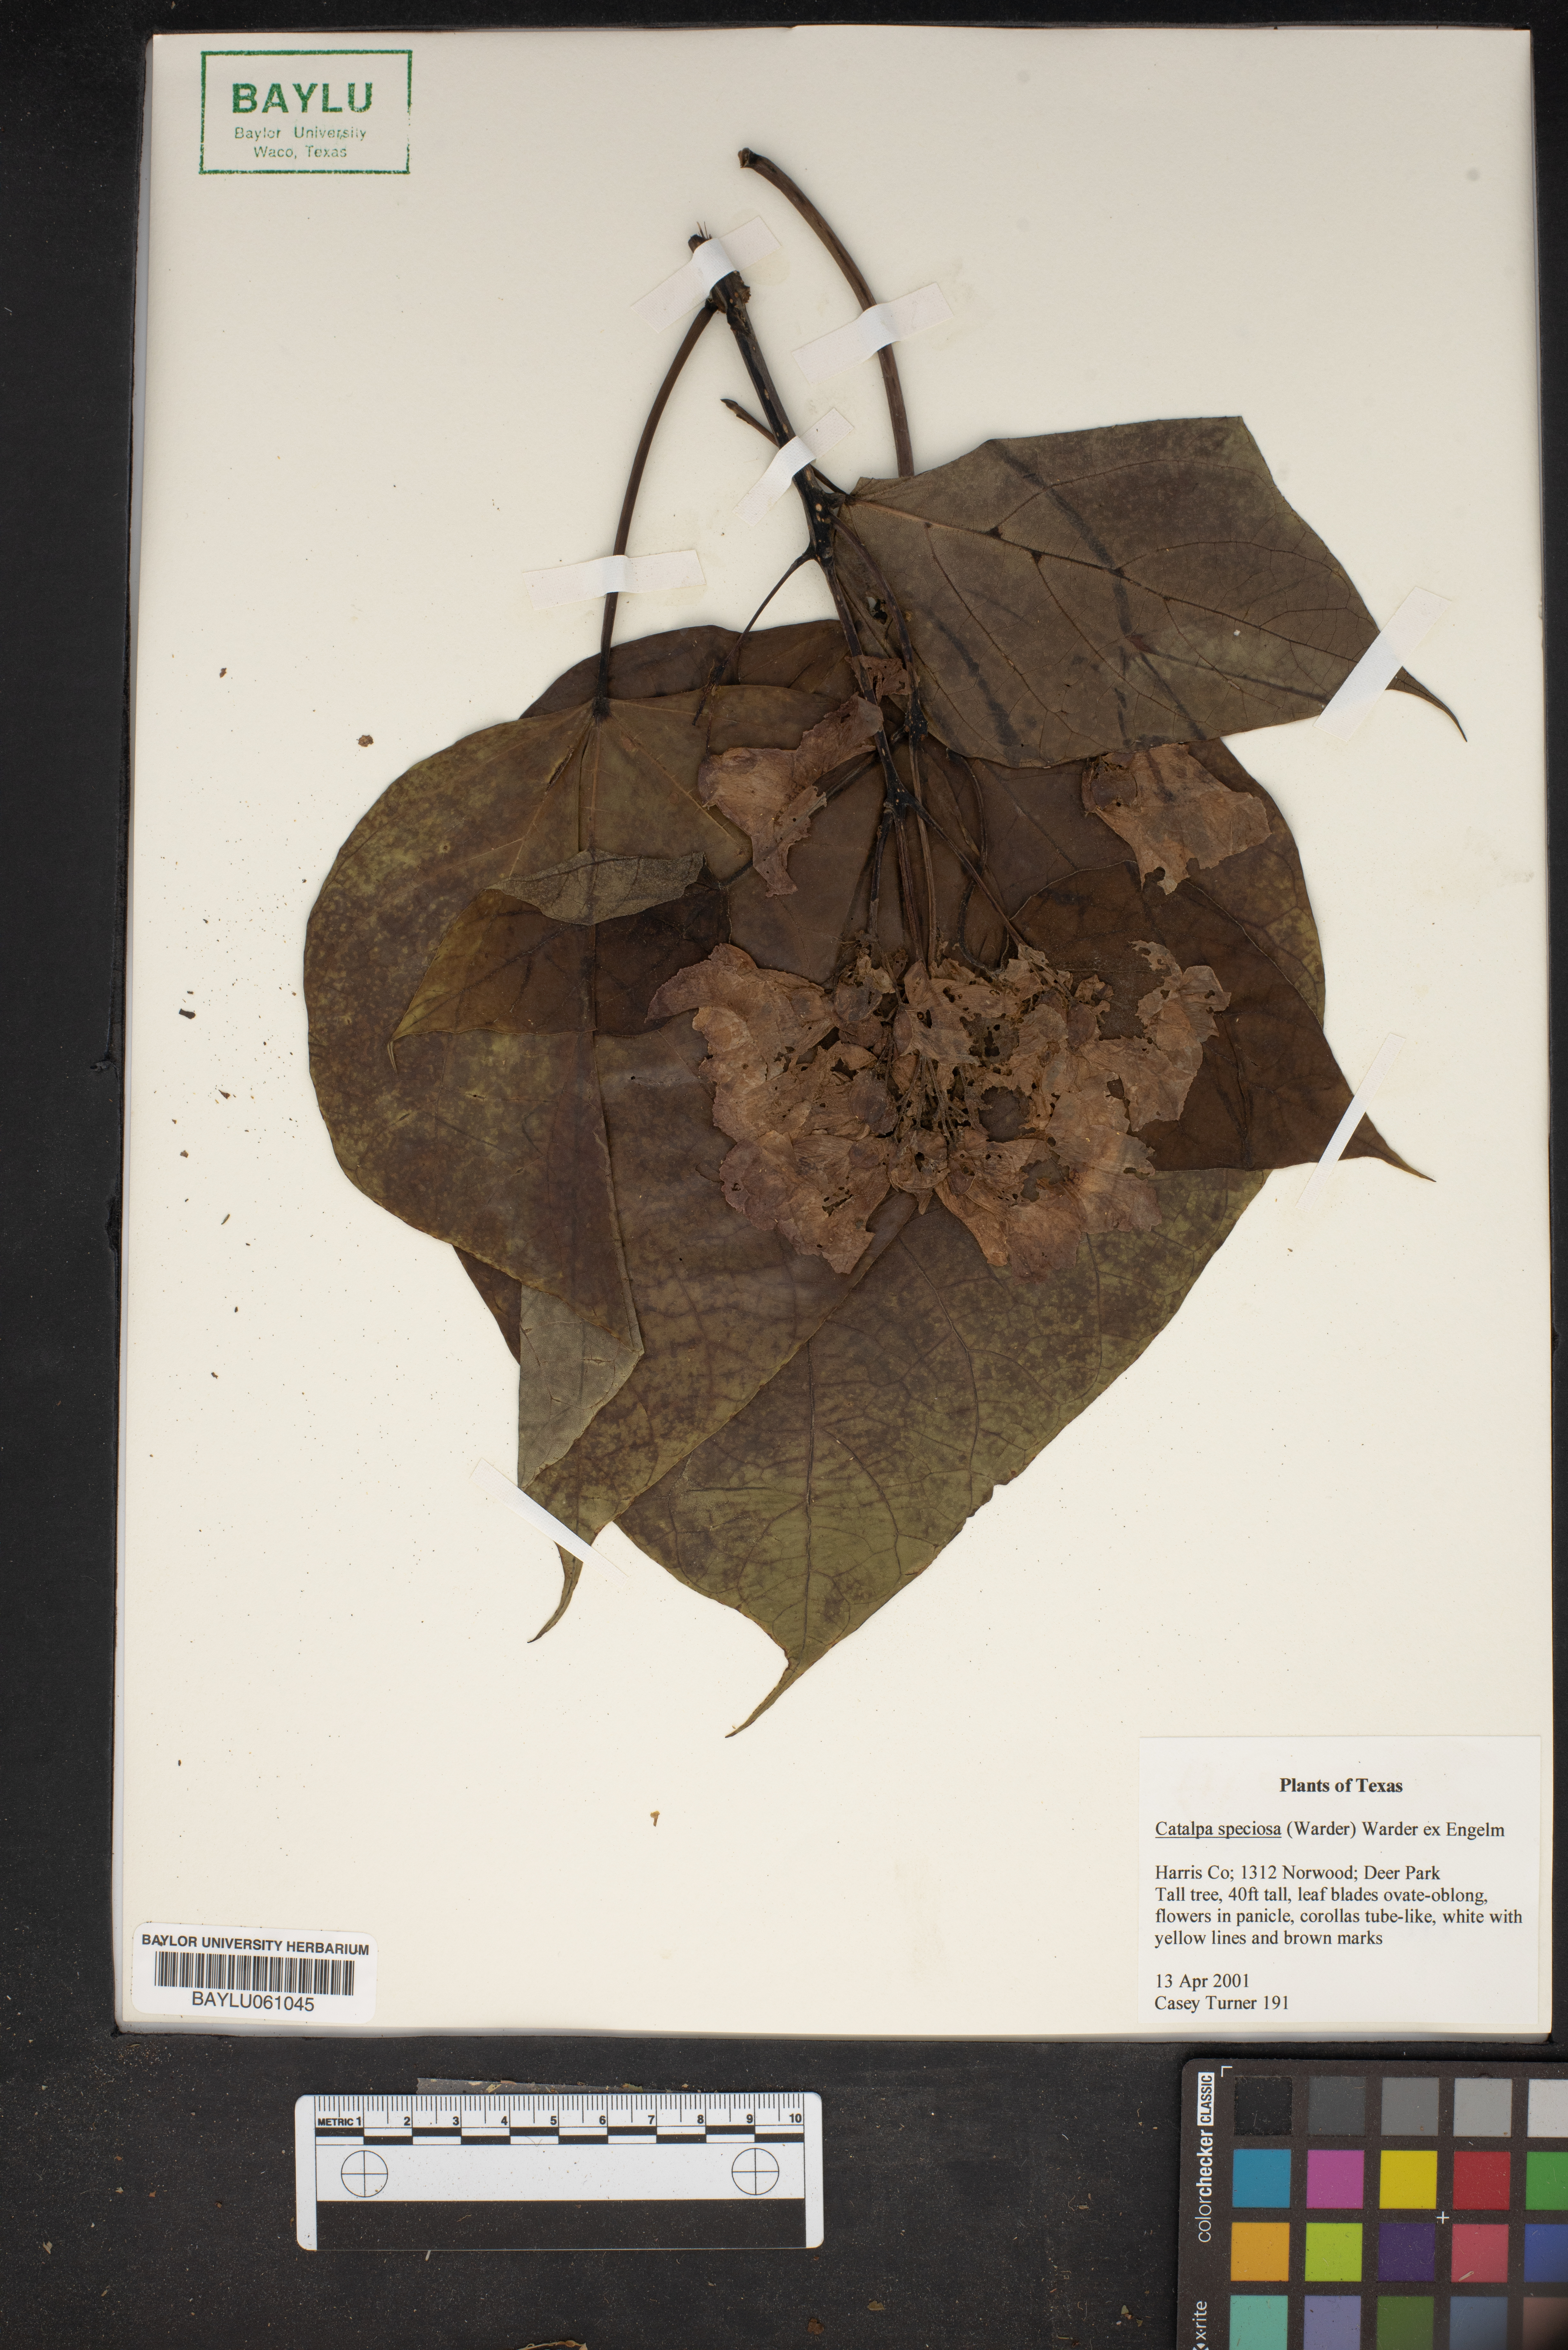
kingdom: Plantae
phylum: Tracheophyta
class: Magnoliopsida
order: Lamiales
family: Bignoniaceae
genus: Catalpa
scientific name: Catalpa speciosa
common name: Northern catalpa
